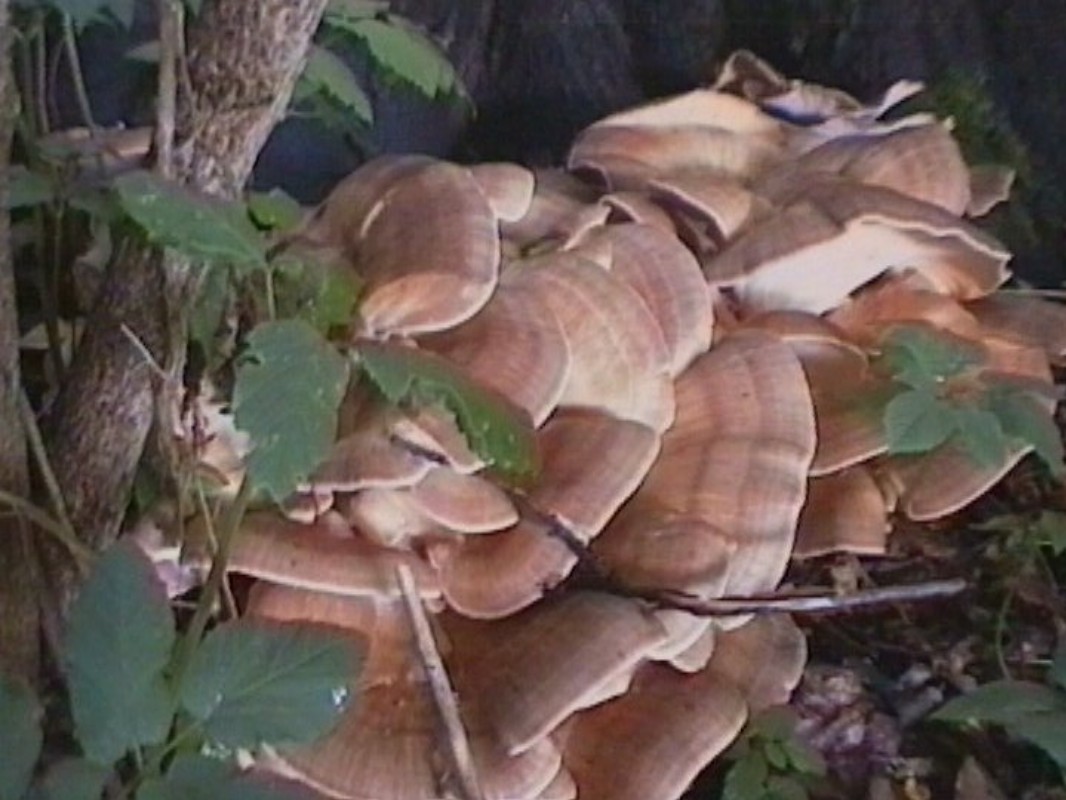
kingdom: Fungi
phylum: Basidiomycota
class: Agaricomycetes
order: Polyporales
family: Meripilaceae
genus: Meripilus
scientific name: Meripilus giganteus
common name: kæmpeporesvamp
